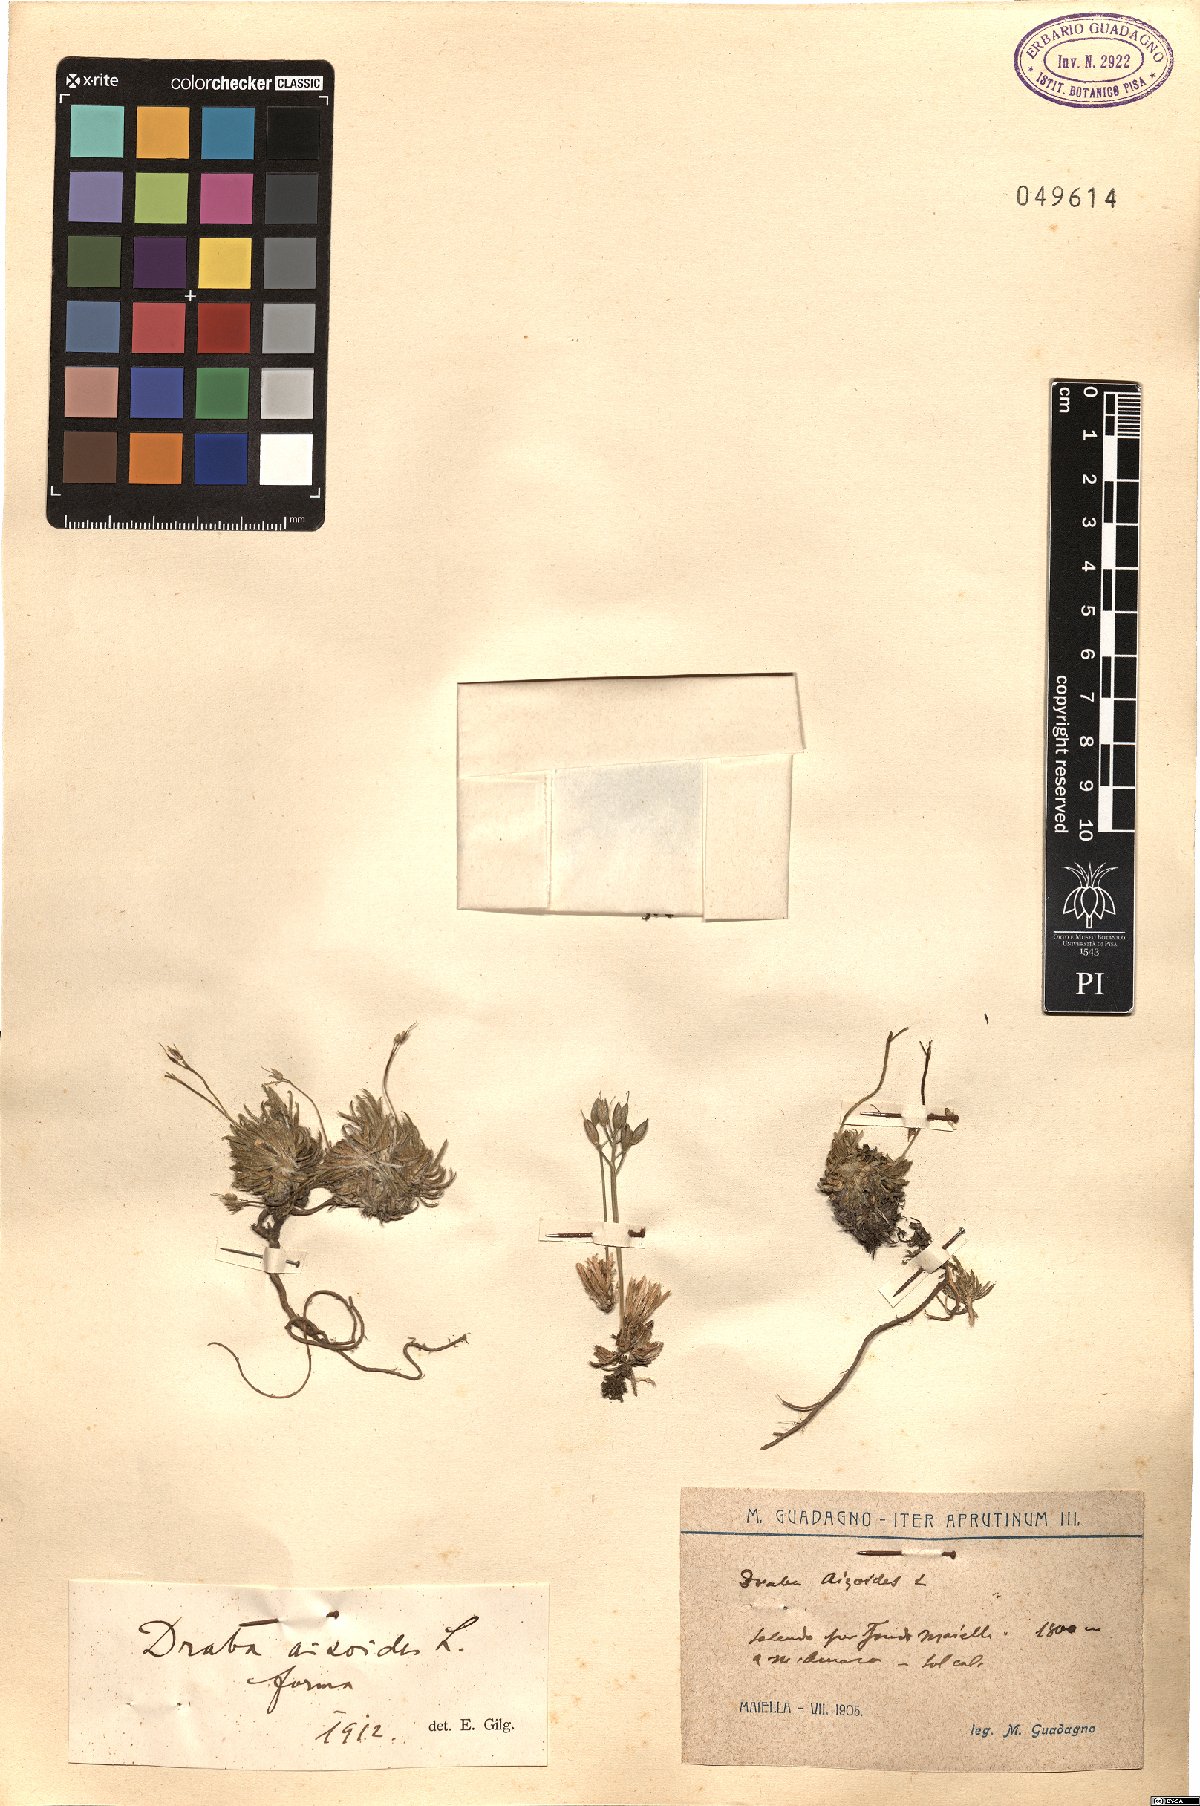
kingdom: Plantae
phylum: Tracheophyta
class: Magnoliopsida
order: Brassicales
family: Brassicaceae
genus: Draba
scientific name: Draba aizoides
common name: Yellow whitlowgrass
